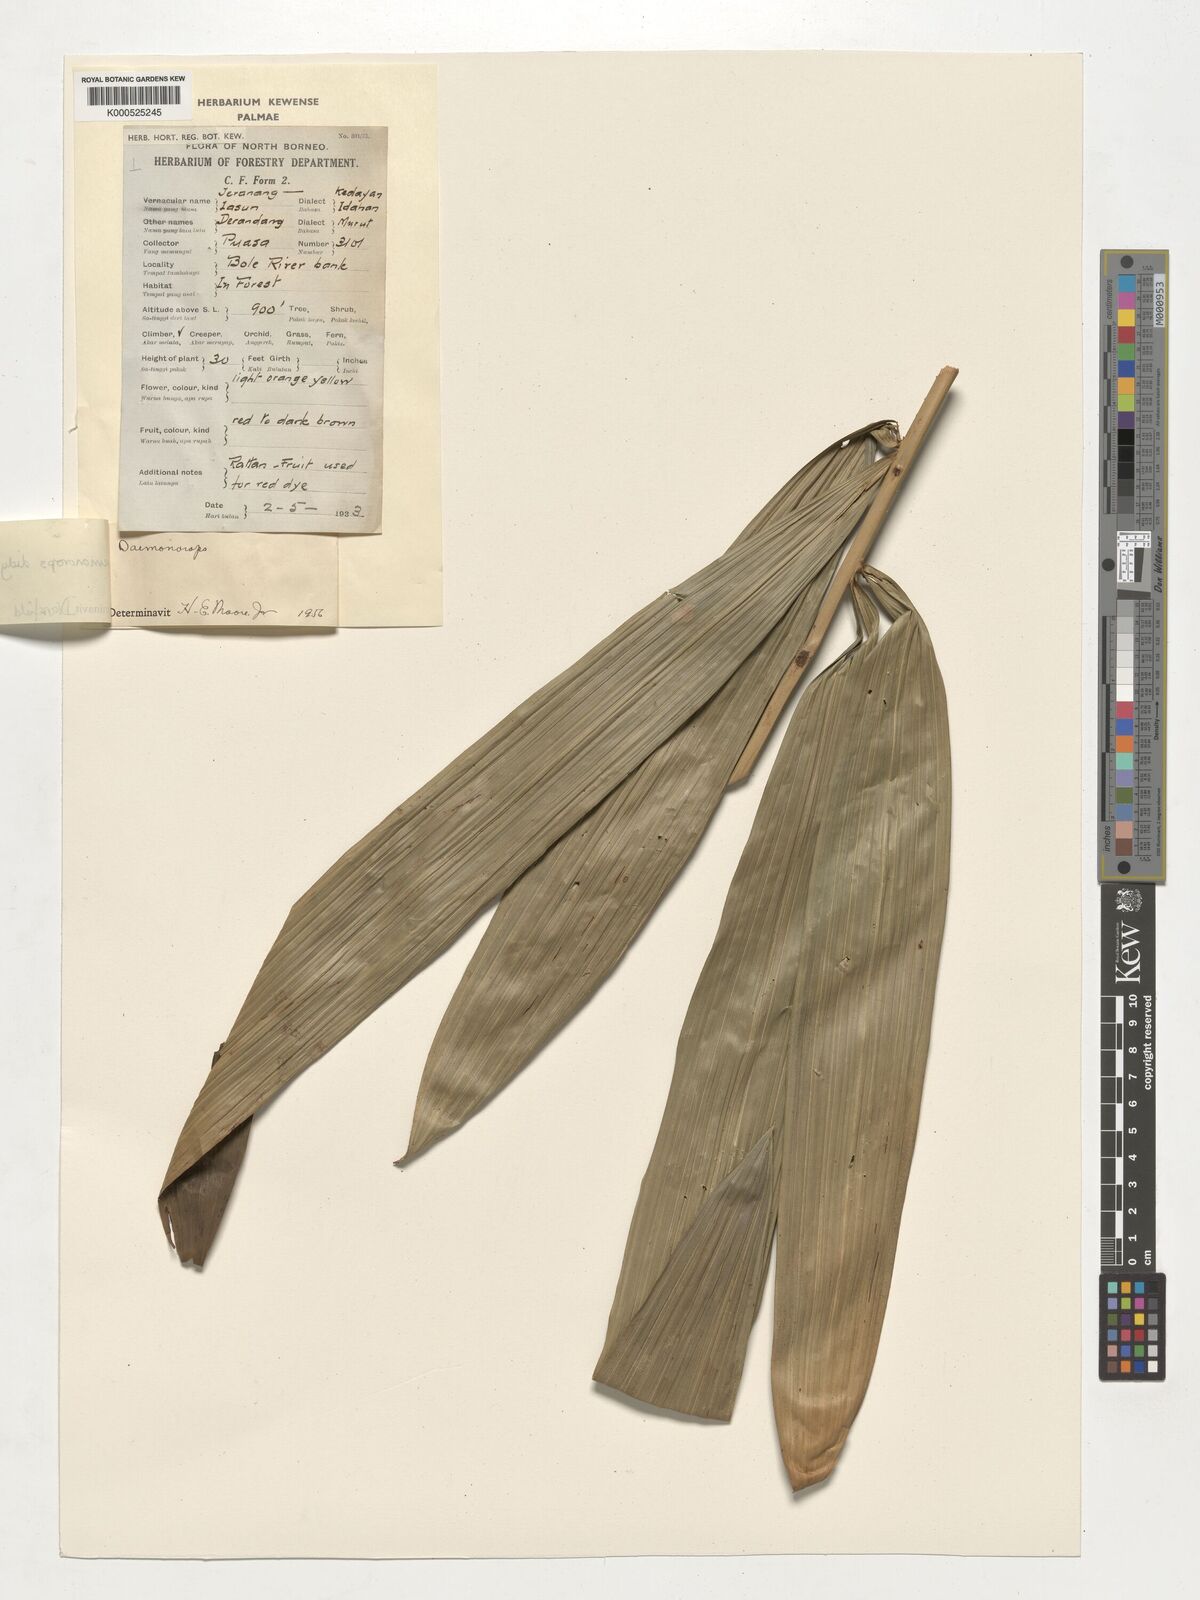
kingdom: Plantae
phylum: Tracheophyta
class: Liliopsida
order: Arecales
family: Arecaceae
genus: Calamus
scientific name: Calamus gracilipes
